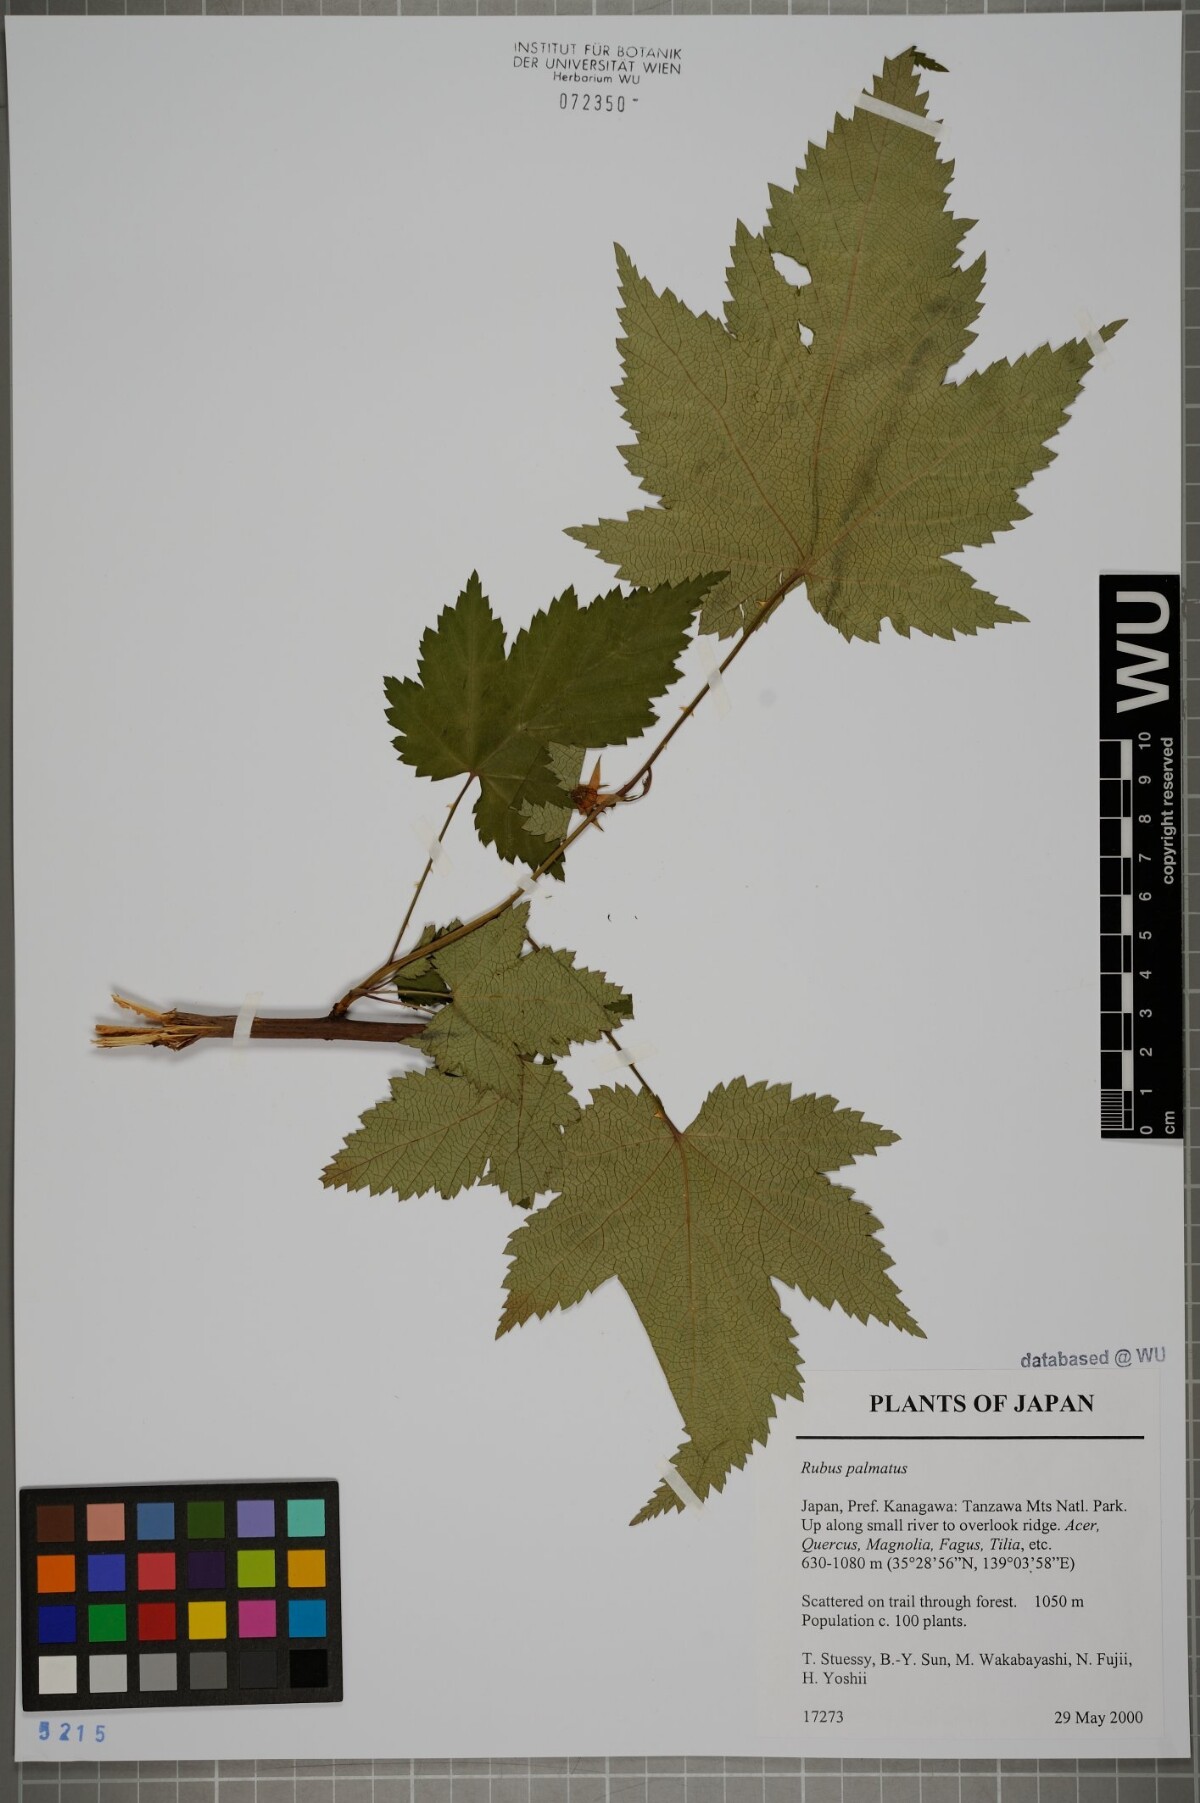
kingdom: Plantae
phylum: Tracheophyta
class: Magnoliopsida
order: Rosales
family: Rosaceae
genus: Rubus
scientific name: Rubus palmatus
